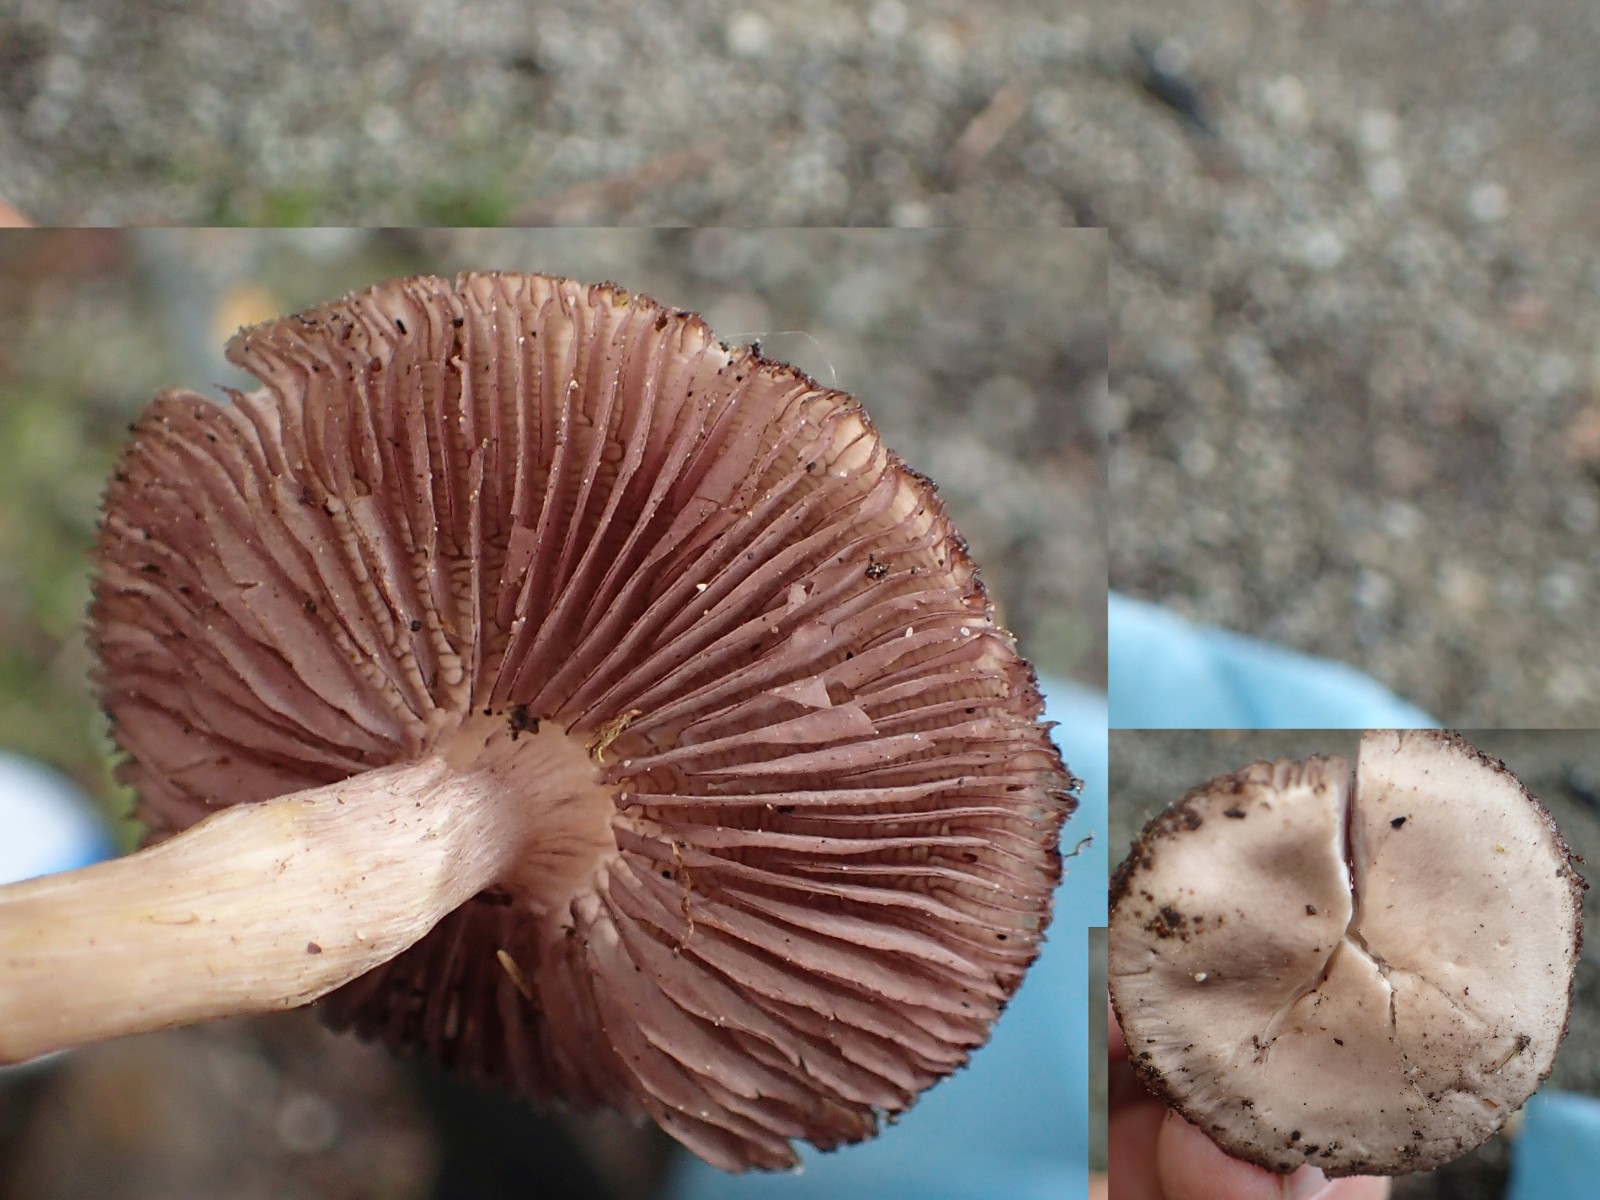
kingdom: Fungi
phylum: Basidiomycota
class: Agaricomycetes
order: Agaricales
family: Mycenaceae
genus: Mycena
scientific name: Mycena pelianthina
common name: mørkbladet huesvamp
